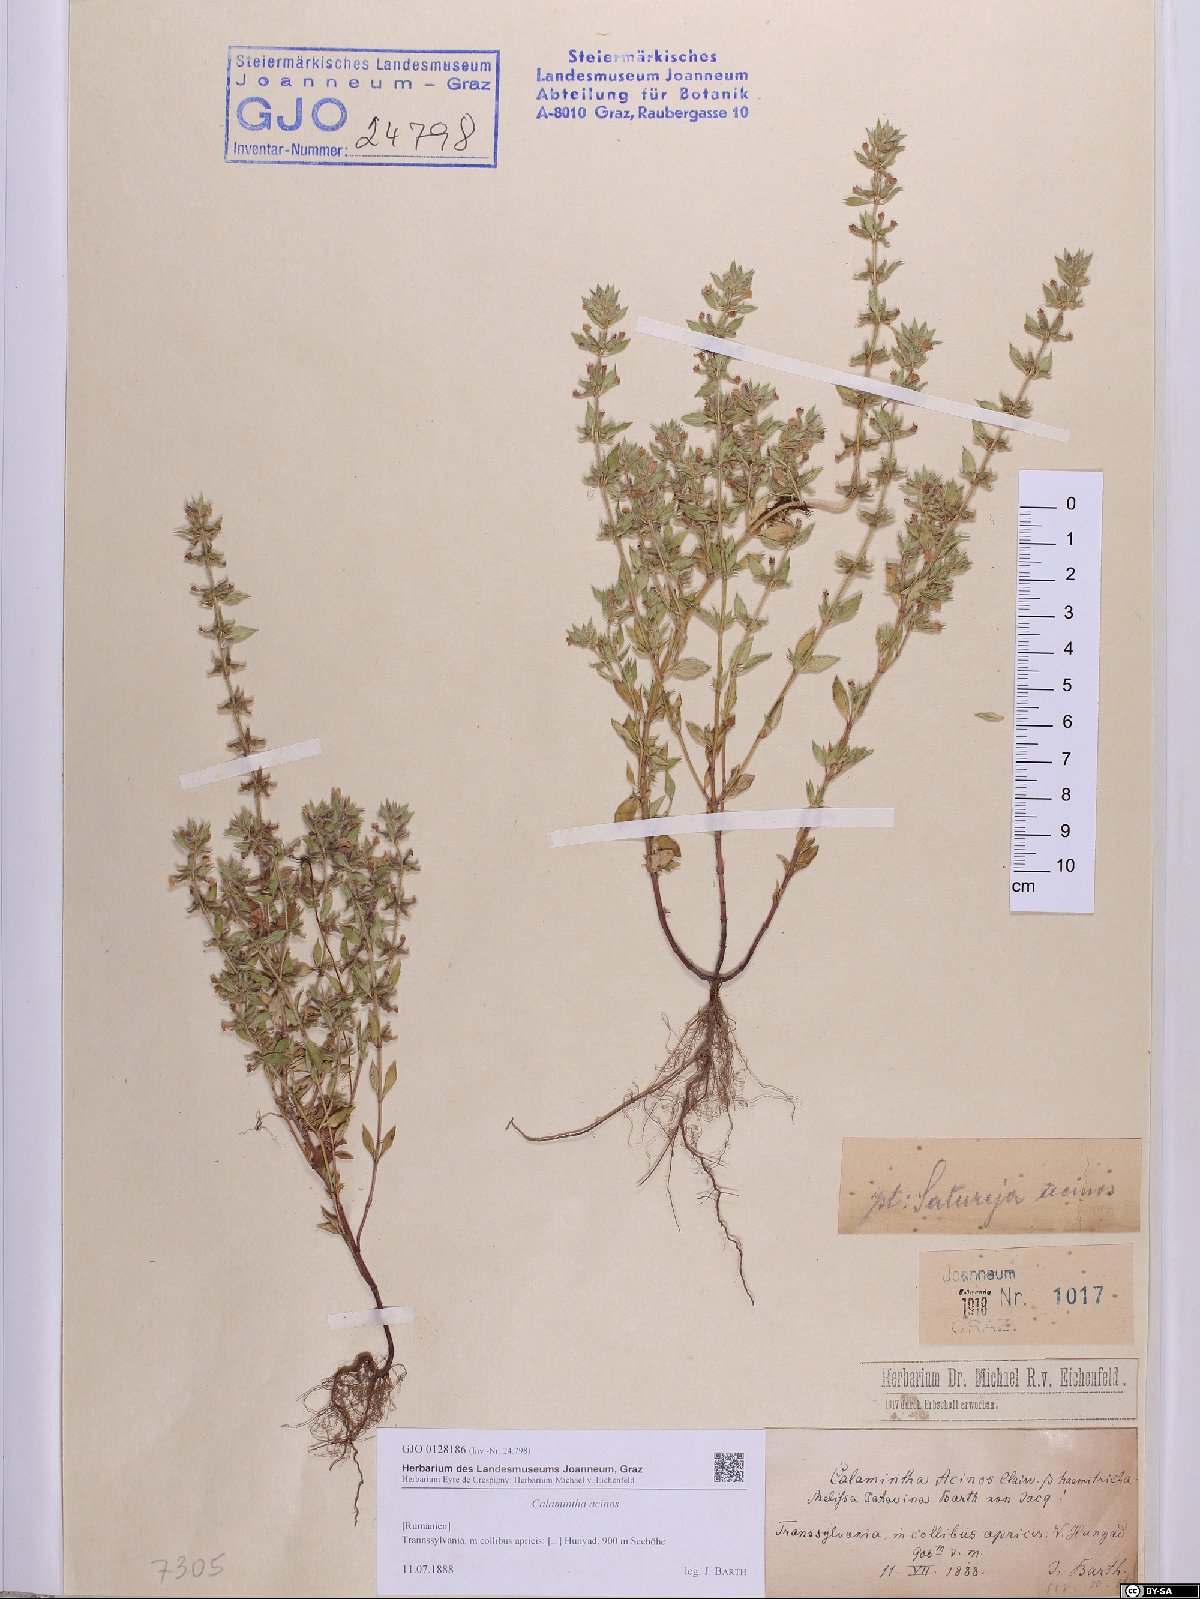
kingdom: Plantae
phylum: Tracheophyta
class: Magnoliopsida
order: Lamiales
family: Lamiaceae
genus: Clinopodium
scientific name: Clinopodium acinos
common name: Basil thyme
